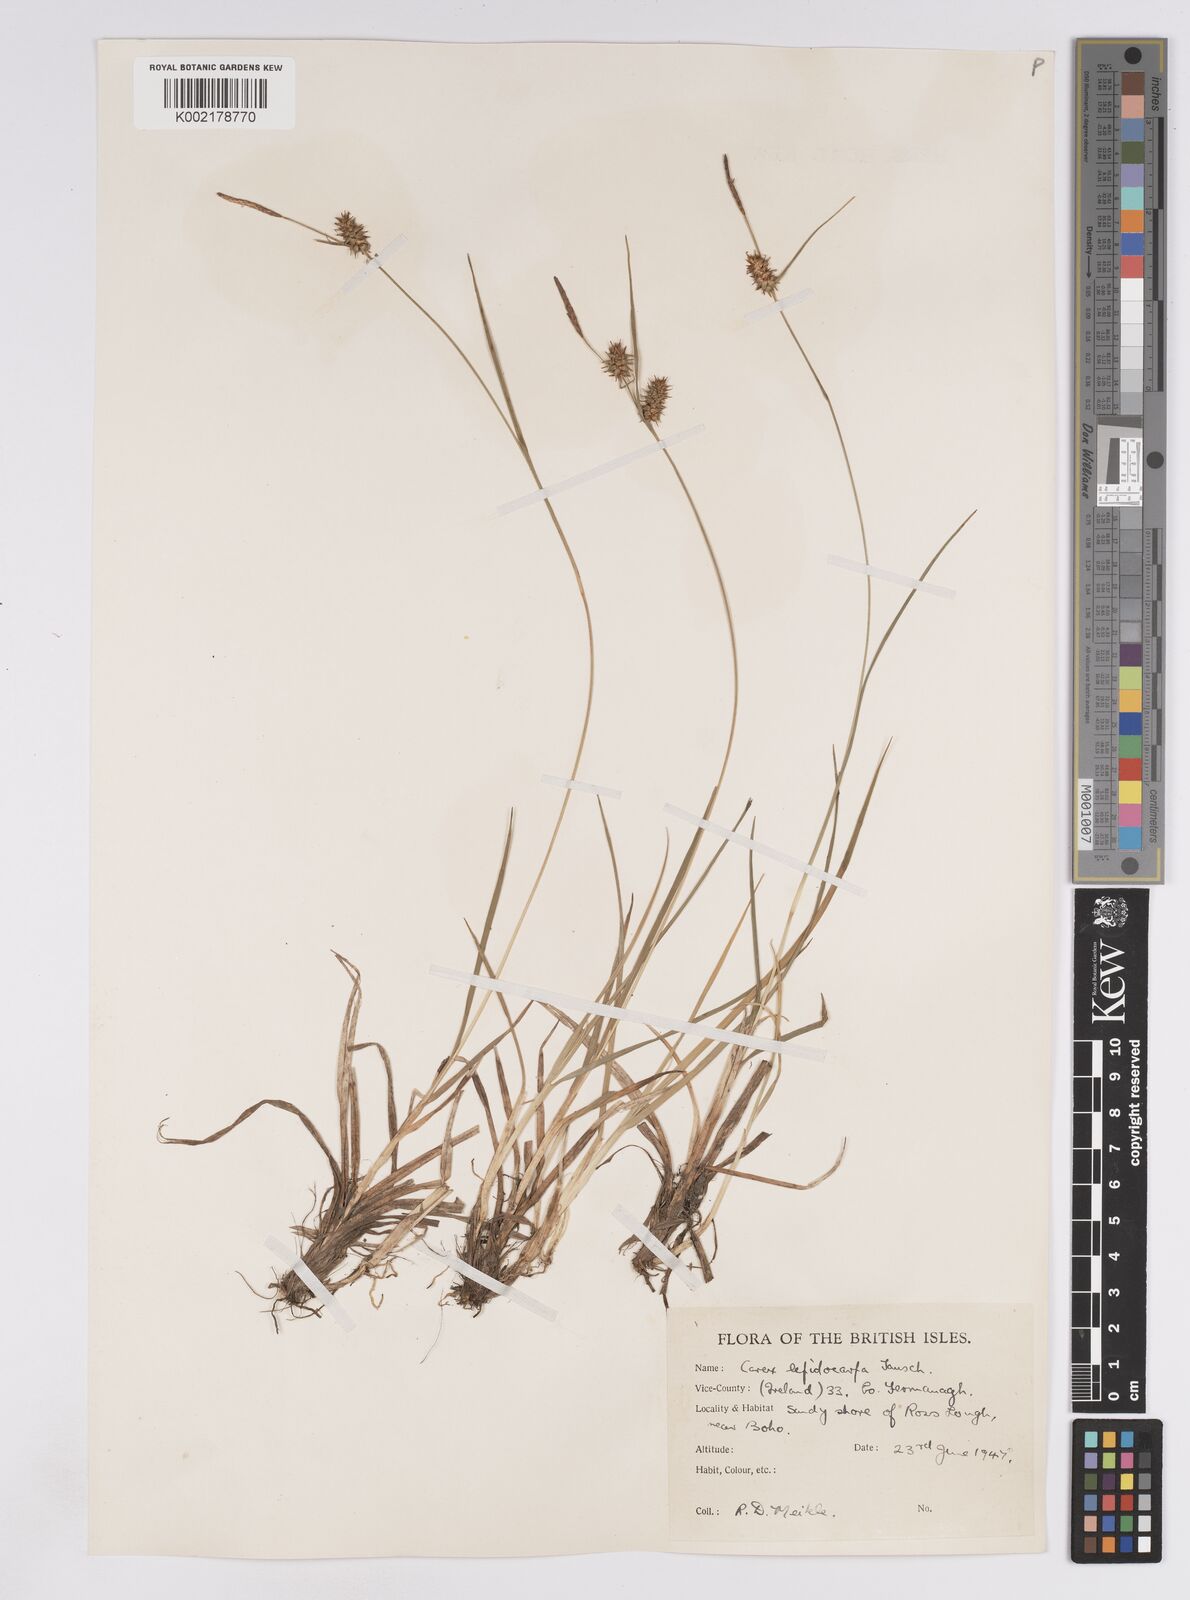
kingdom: Plantae
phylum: Tracheophyta
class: Liliopsida
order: Poales
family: Cyperaceae
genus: Carex
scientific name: Carex lepidocarpa
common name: Long-stalked yellow-sedge
